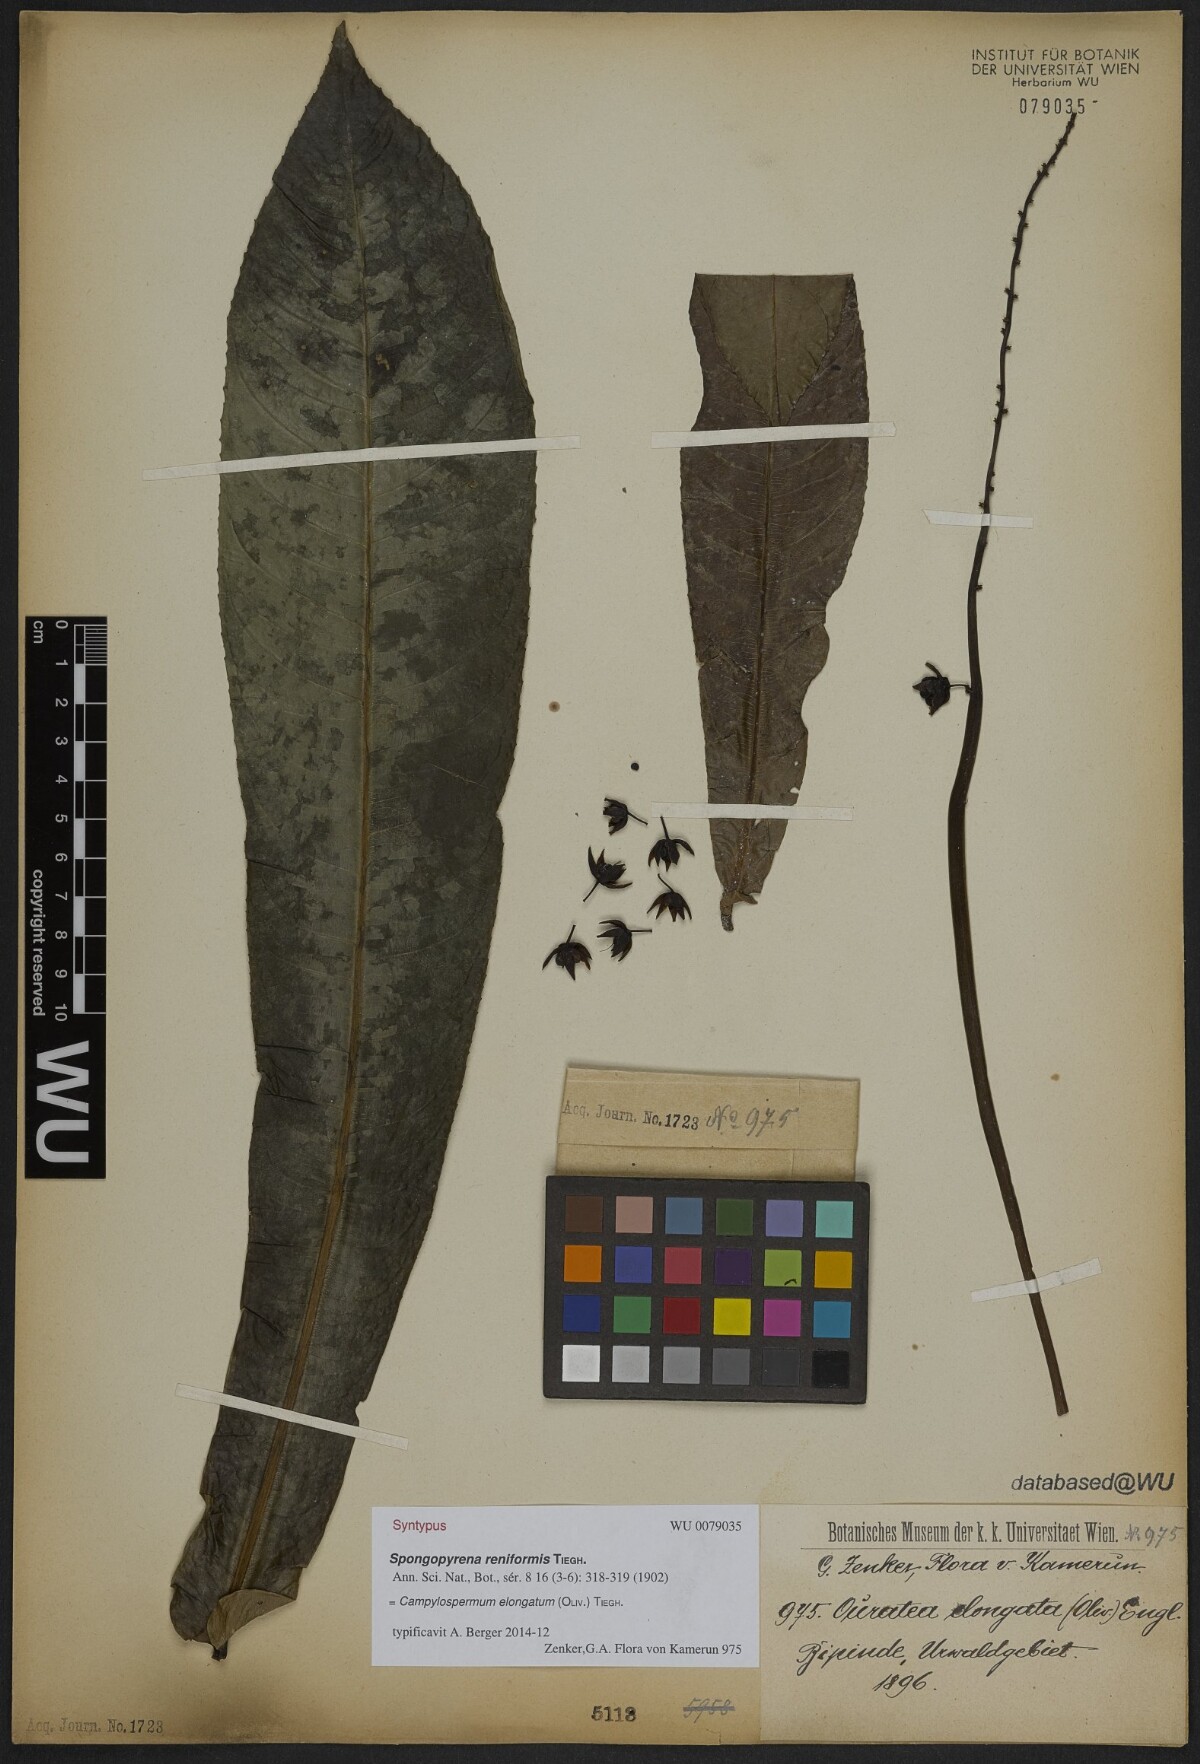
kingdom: Plantae
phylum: Tracheophyta
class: Magnoliopsida
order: Malpighiales
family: Ochnaceae
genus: Gomphia
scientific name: Gomphia elongata
